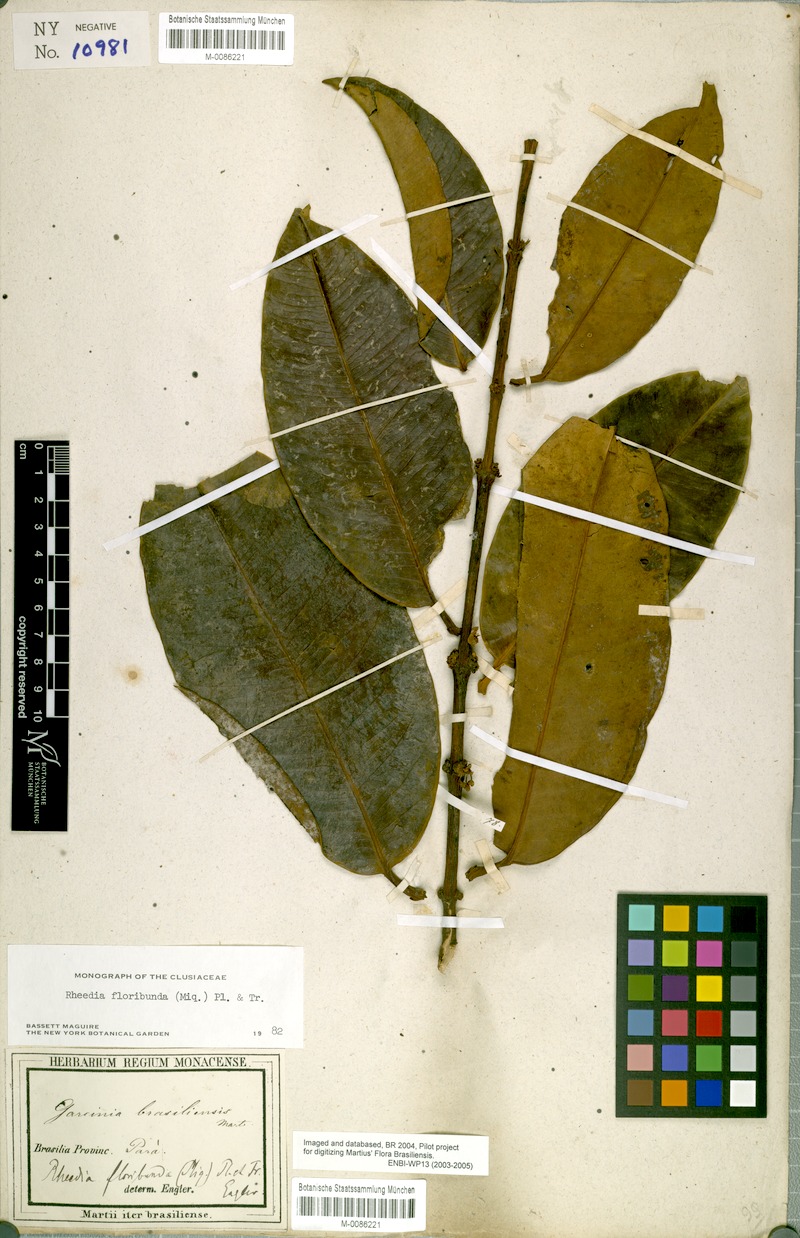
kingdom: Plantae
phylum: Tracheophyta
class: Magnoliopsida
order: Malpighiales
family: Clusiaceae
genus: Garcinia
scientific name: Garcinia madruno
